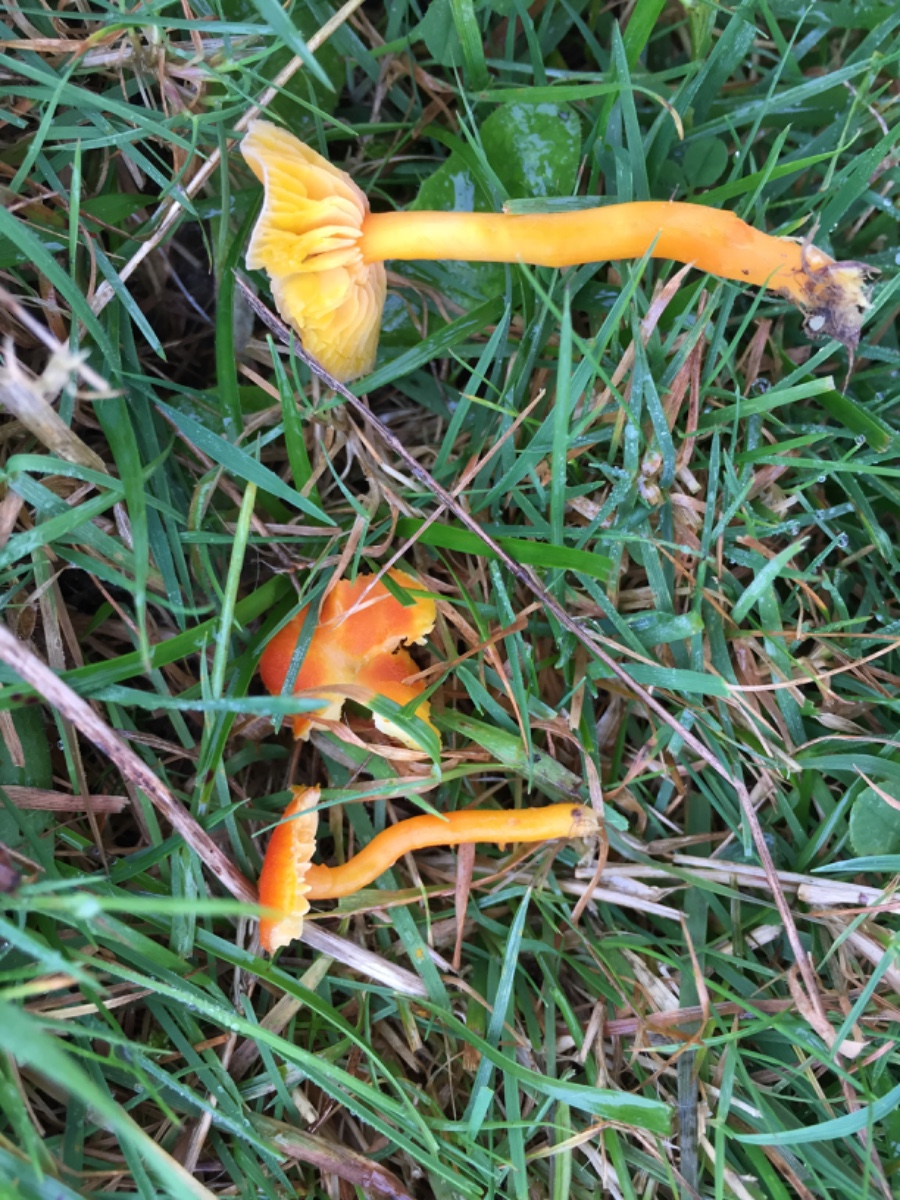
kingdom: Fungi
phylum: Basidiomycota
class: Agaricomycetes
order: Agaricales
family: Hygrophoraceae
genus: Hygrocybe
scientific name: Hygrocybe miniata
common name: mønje-vokshat
